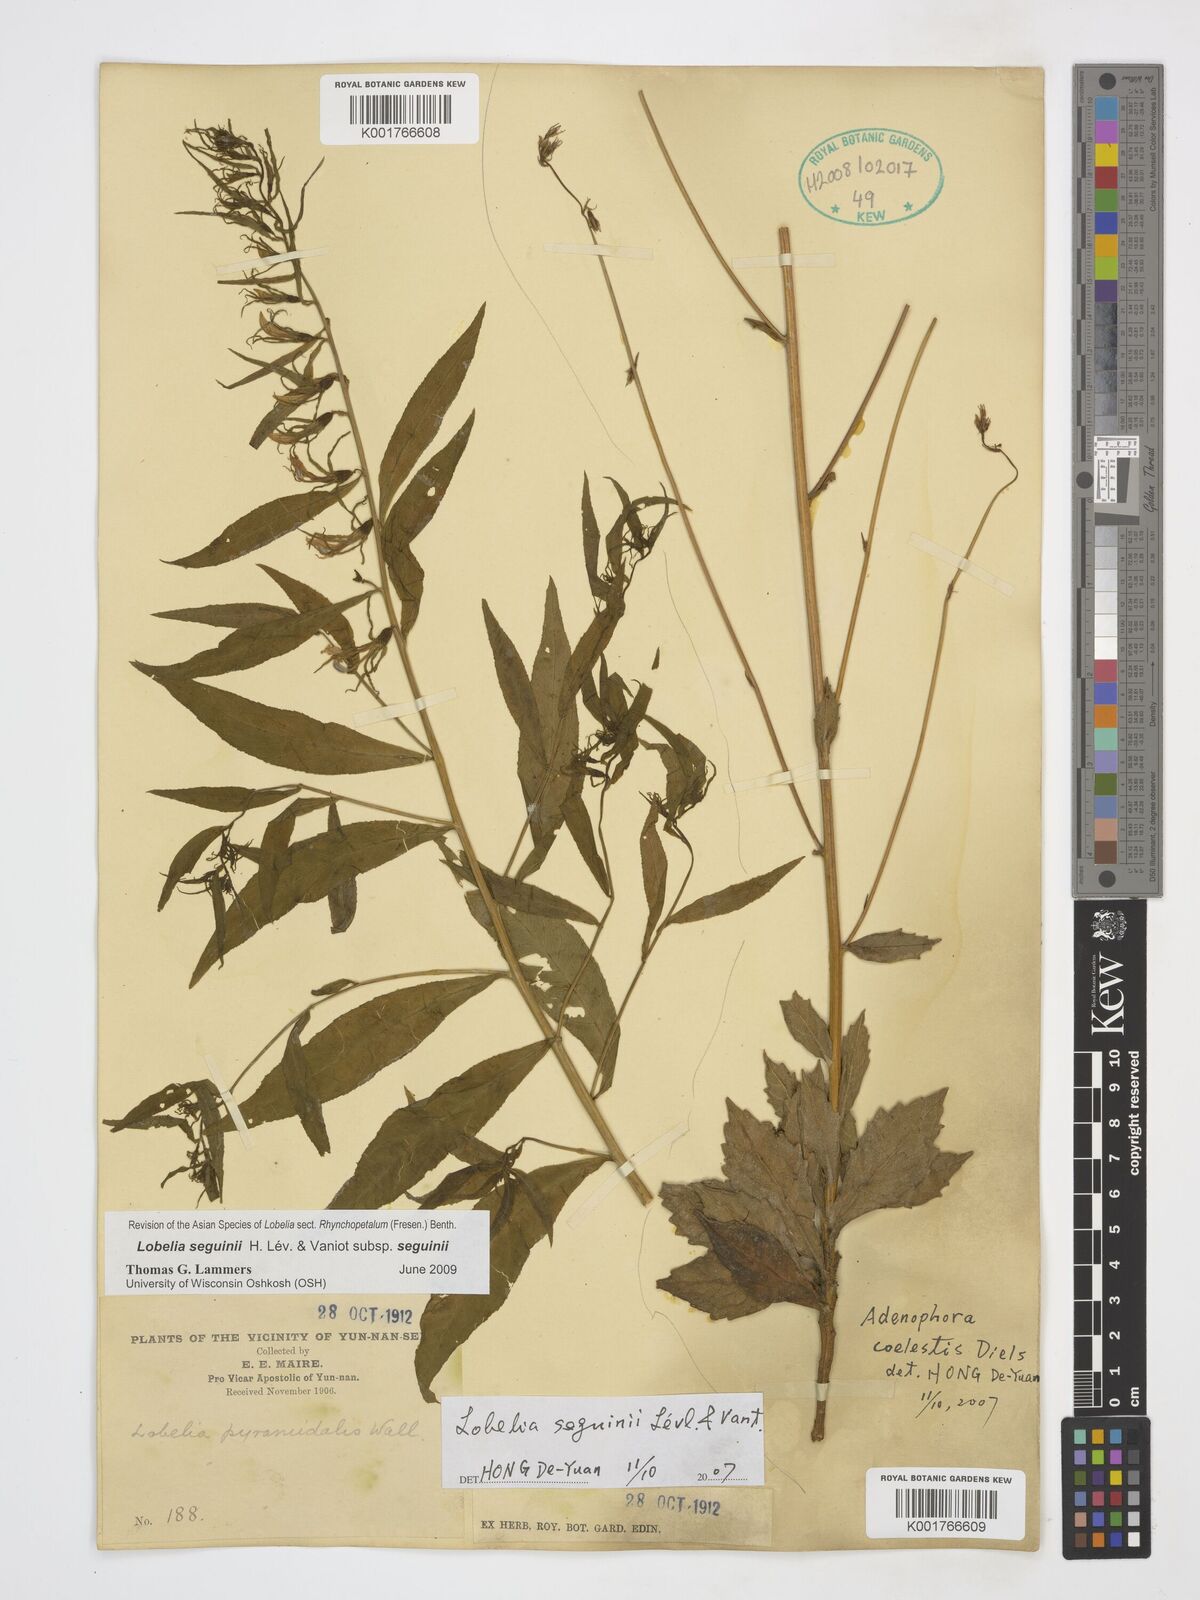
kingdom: Plantae
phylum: Tracheophyta
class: Magnoliopsida
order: Asterales
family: Campanulaceae
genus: Lobelia
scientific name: Lobelia seguinii
